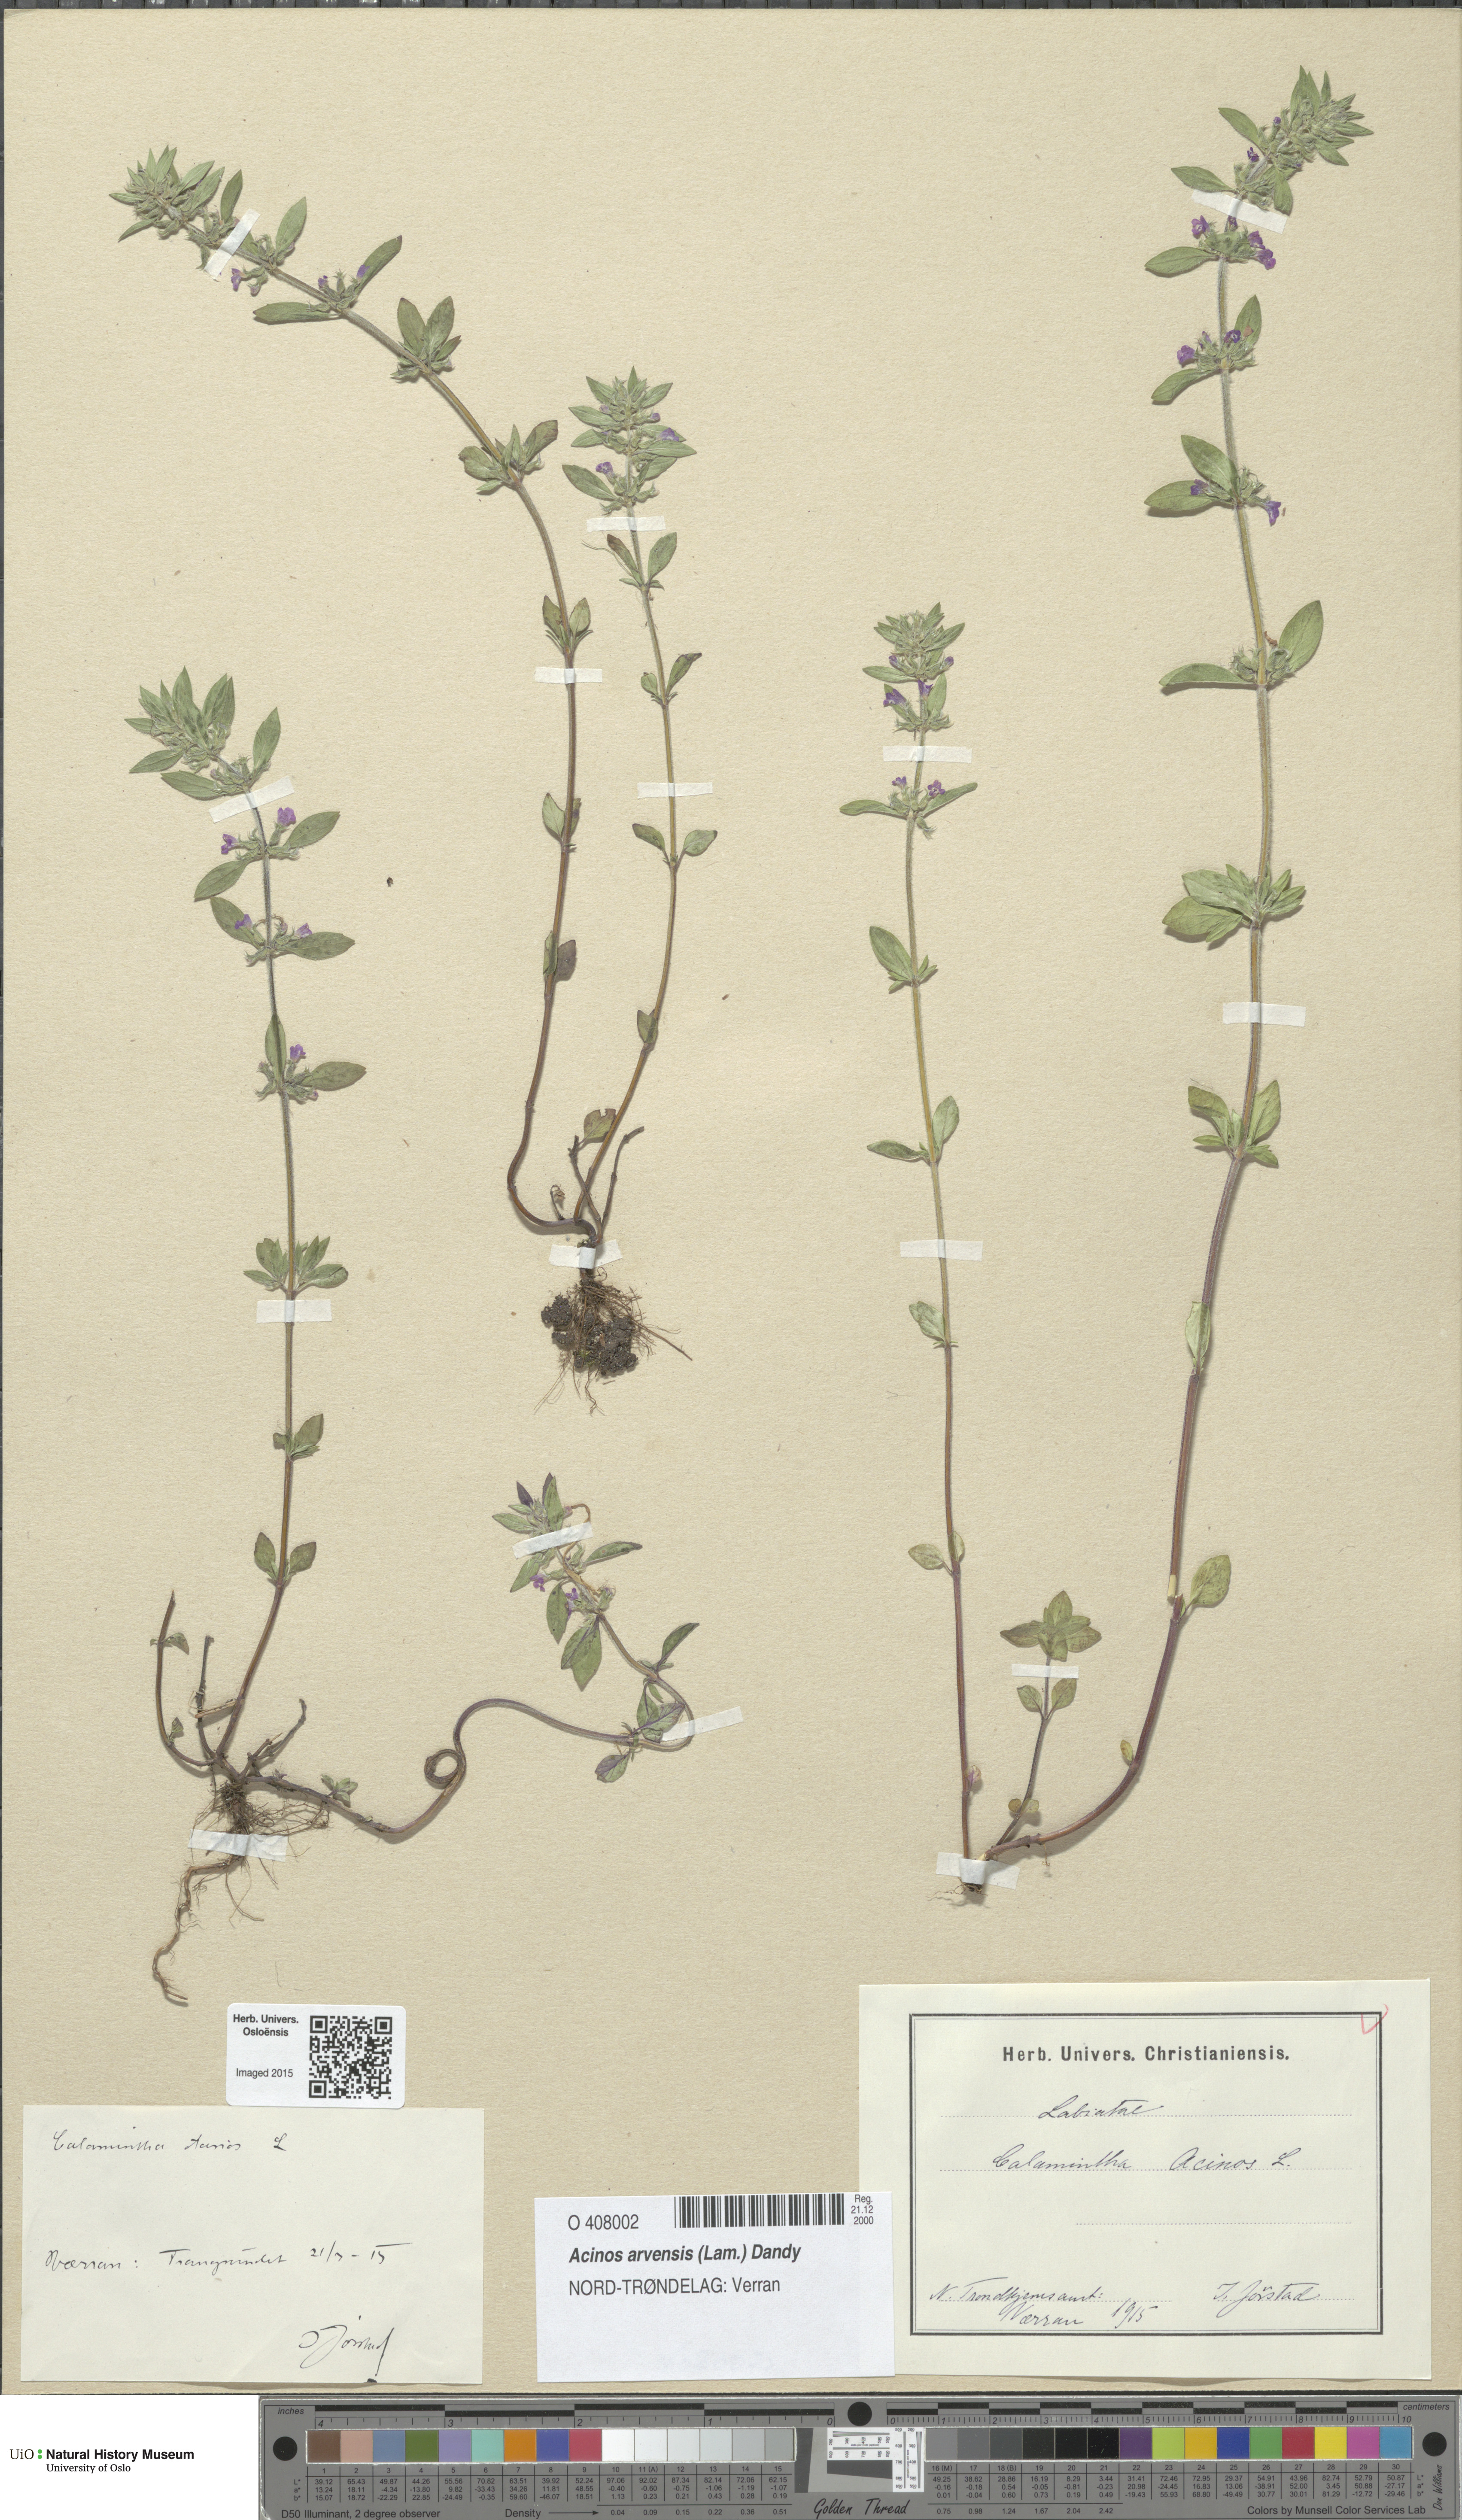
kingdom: Plantae
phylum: Tracheophyta
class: Magnoliopsida
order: Lamiales
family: Lamiaceae
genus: Clinopodium
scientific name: Clinopodium acinos
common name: Basil thyme
